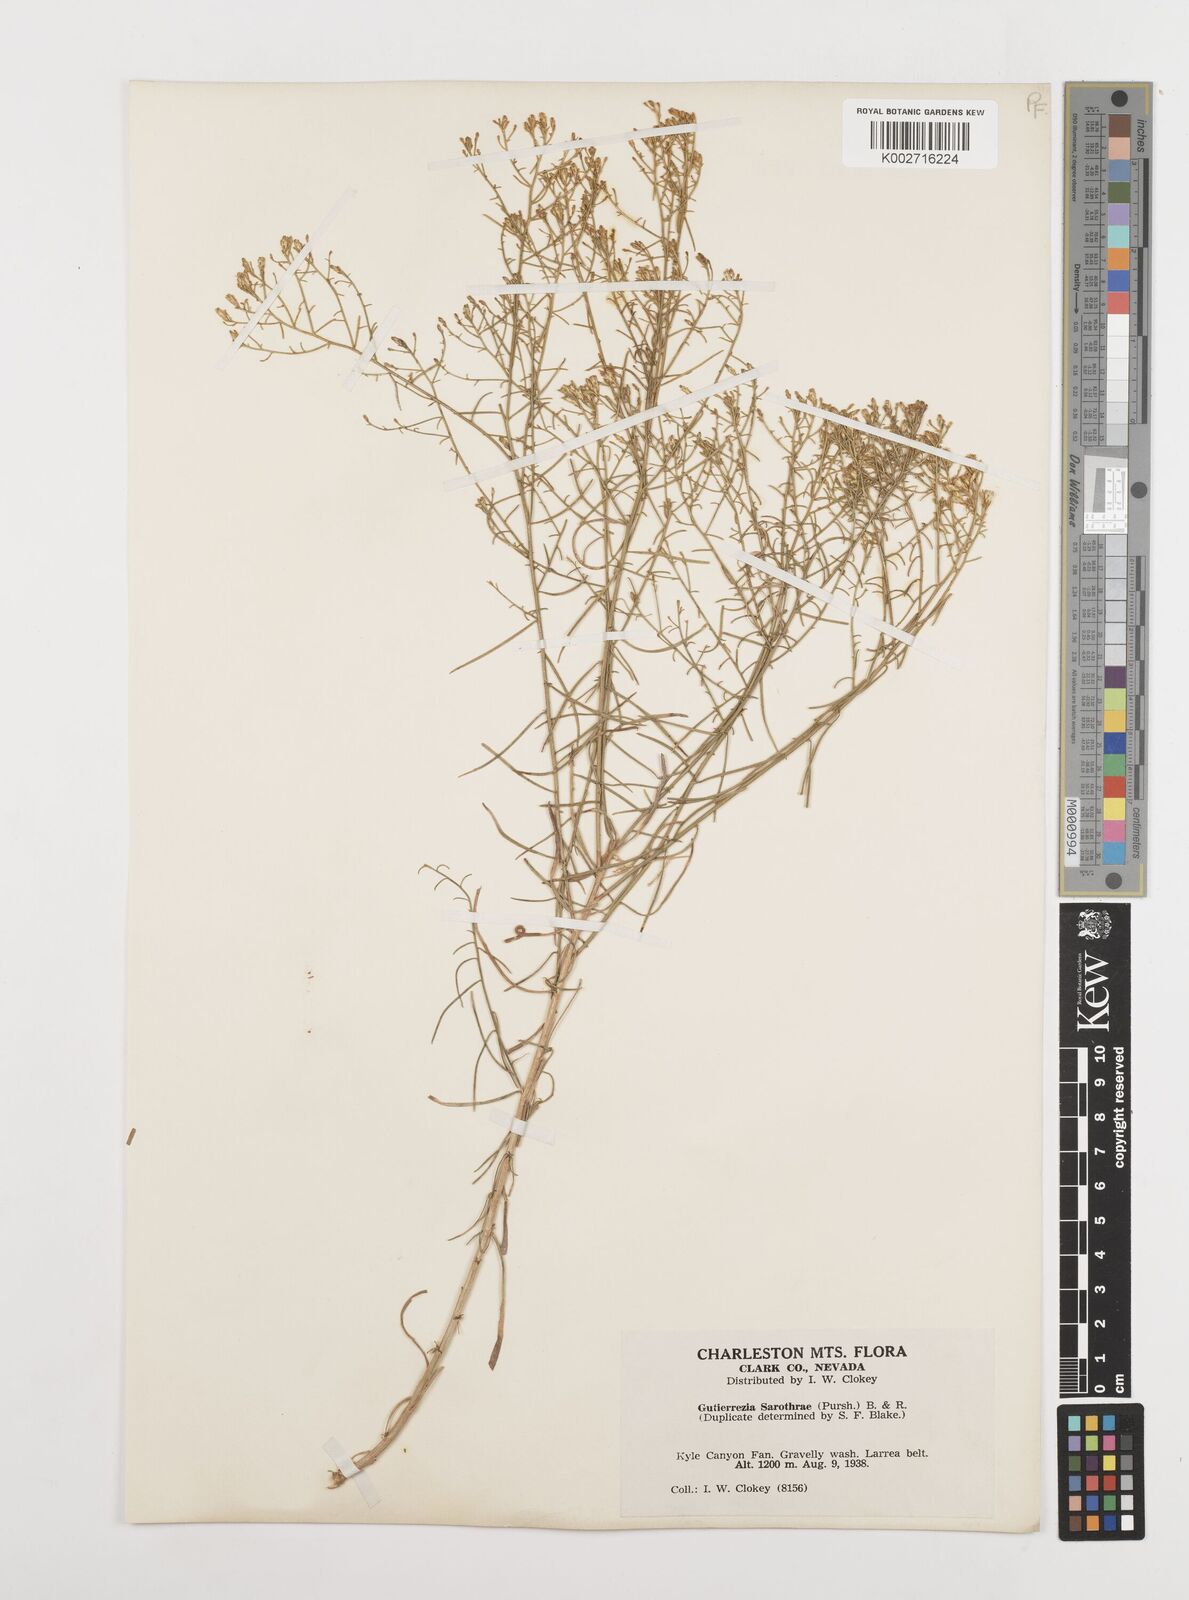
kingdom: Plantae
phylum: Tracheophyta
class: Magnoliopsida
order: Asterales
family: Asteraceae
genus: Gutierrezia
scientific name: Gutierrezia sarothrae
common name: Broom snakeweed
